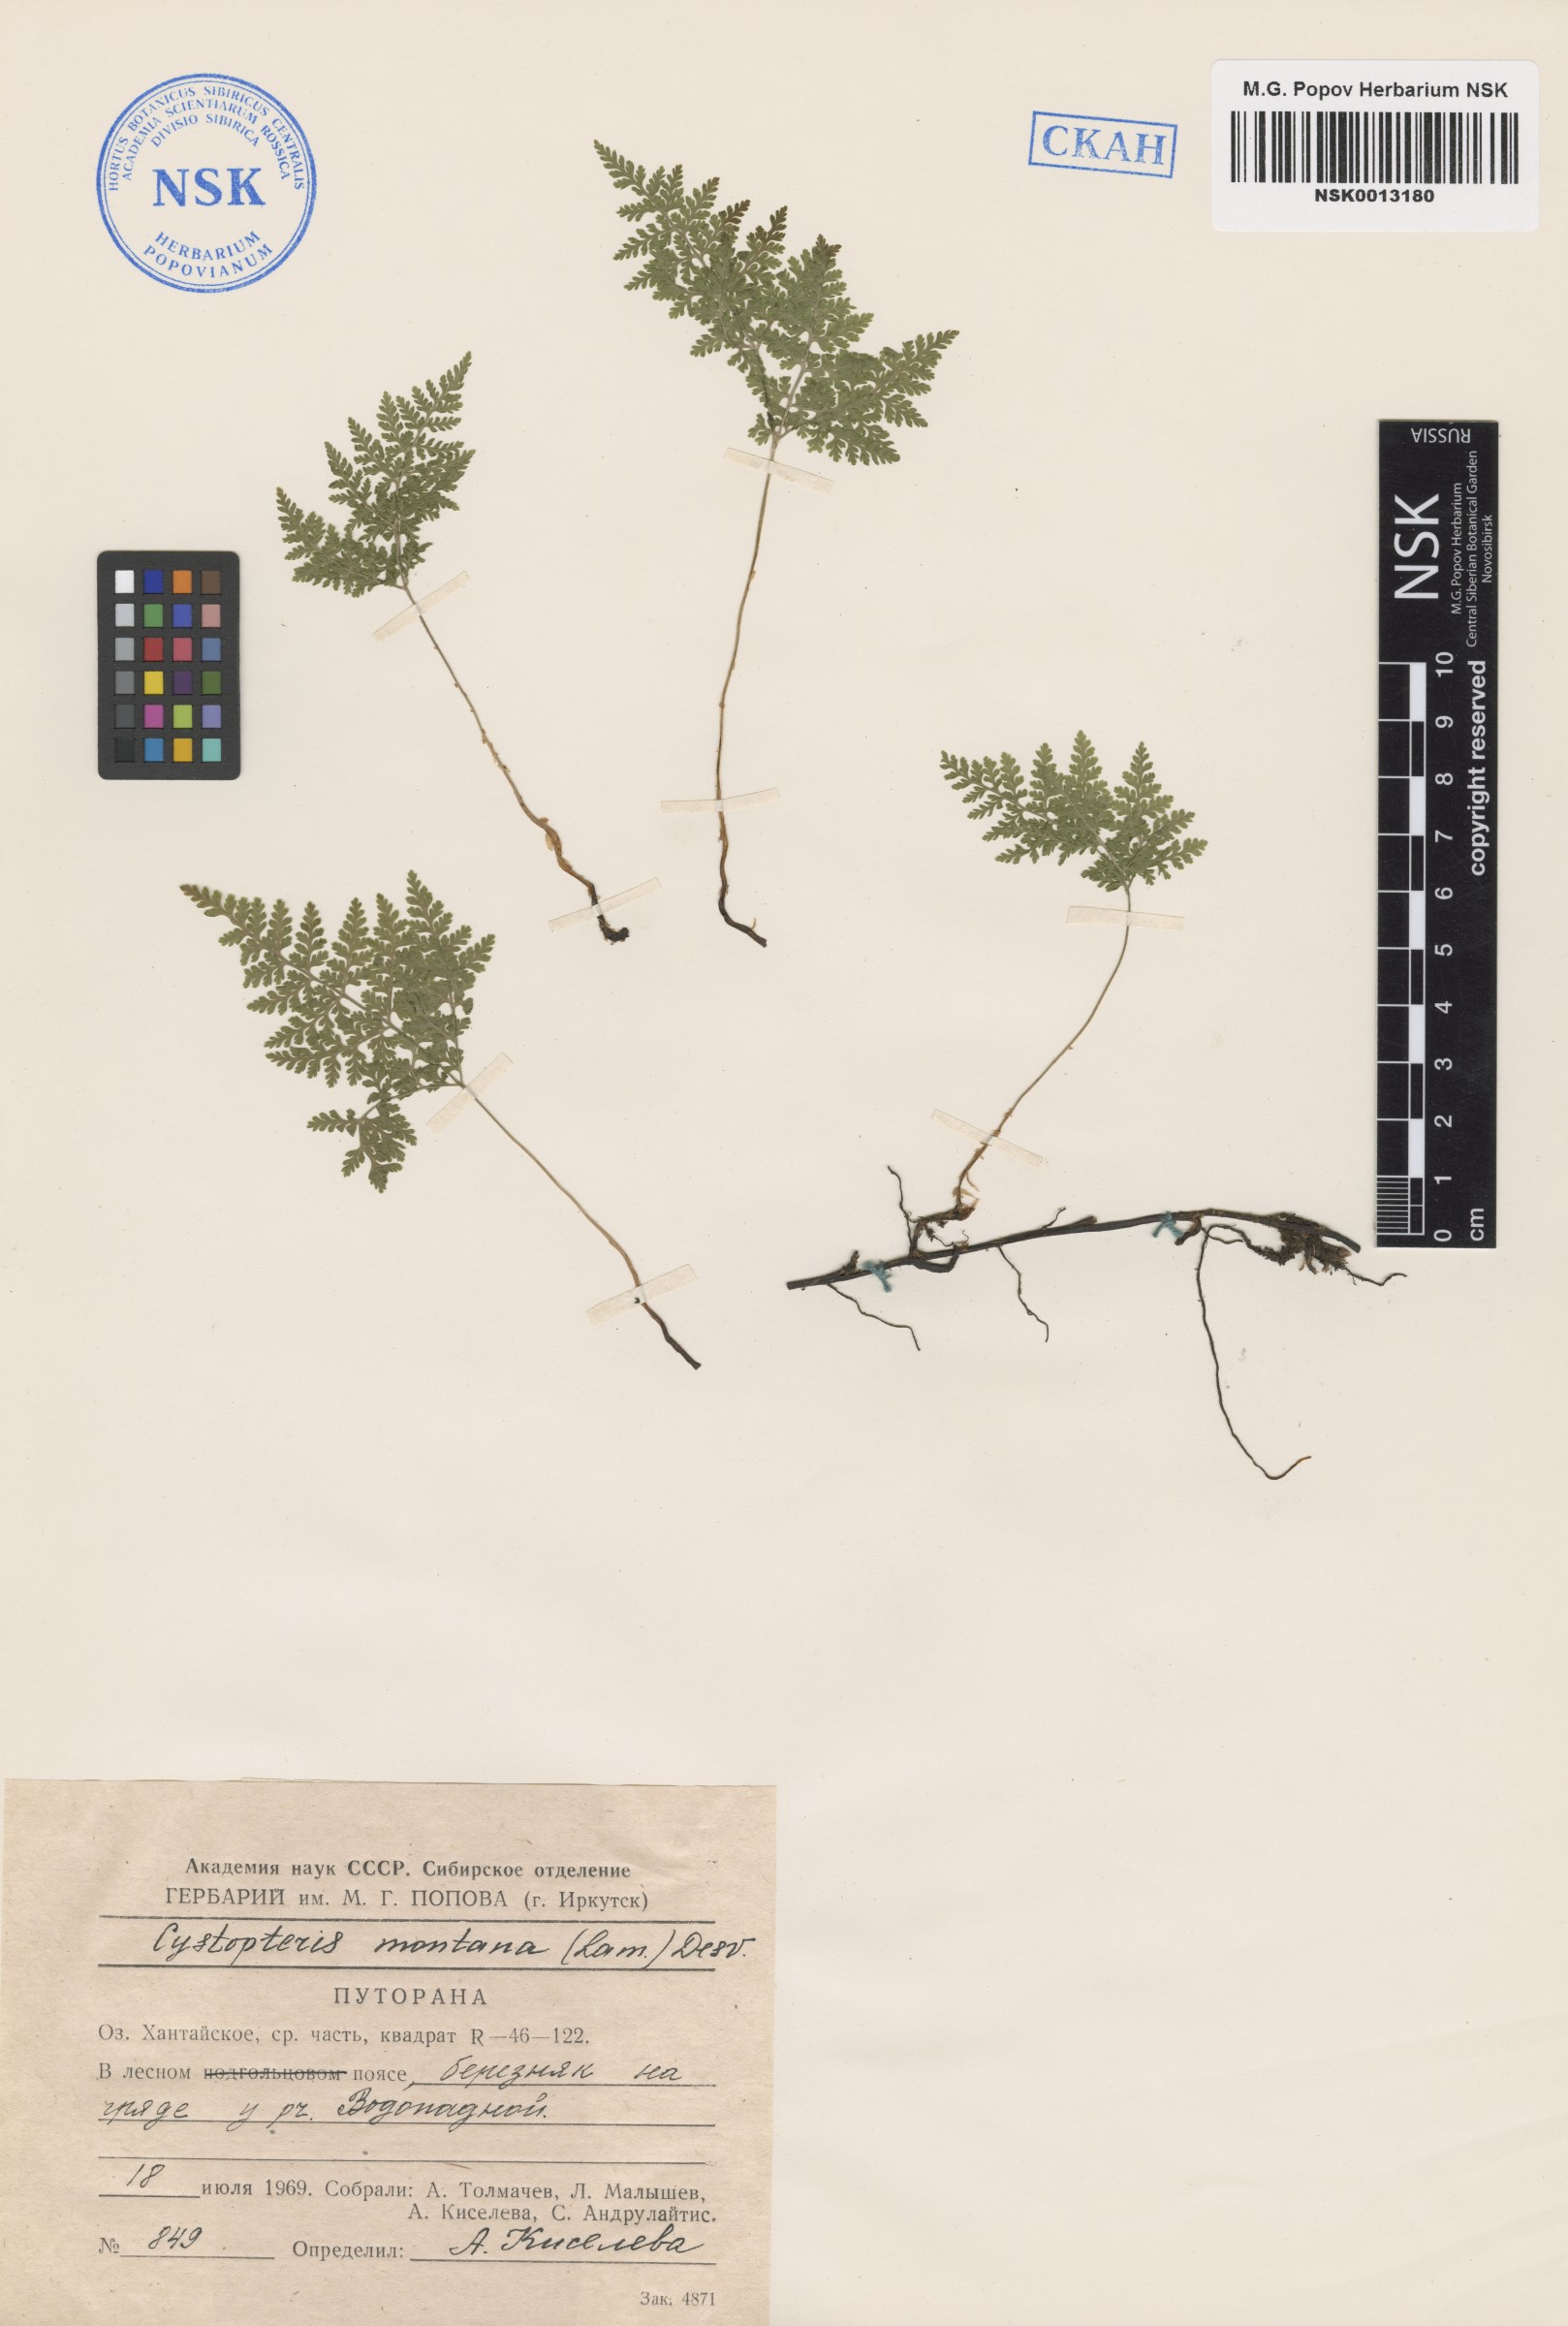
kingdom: Plantae
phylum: Tracheophyta
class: Polypodiopsida
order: Polypodiales
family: Cystopteridaceae
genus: Cystopteris
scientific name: Cystopteris montana
